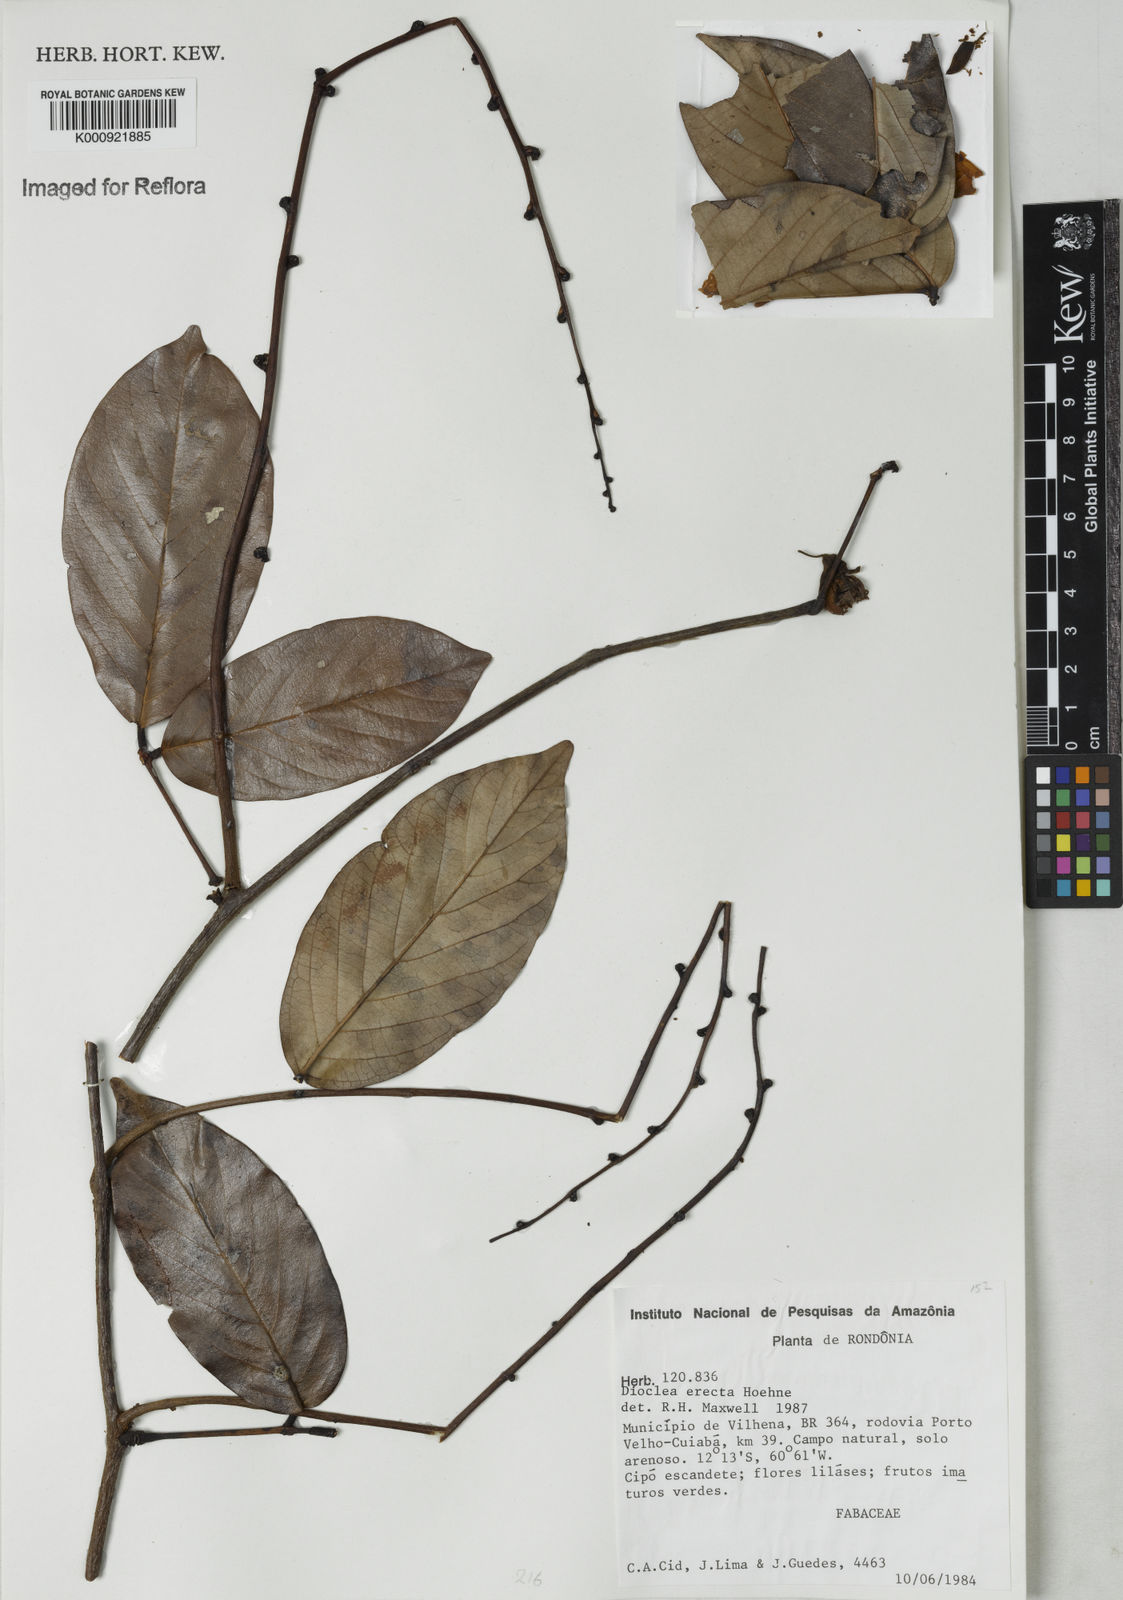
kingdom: Plantae
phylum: Tracheophyta
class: Magnoliopsida
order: Fabales
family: Fabaceae
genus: Macropsychanthus
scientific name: Macropsychanthus erectus
